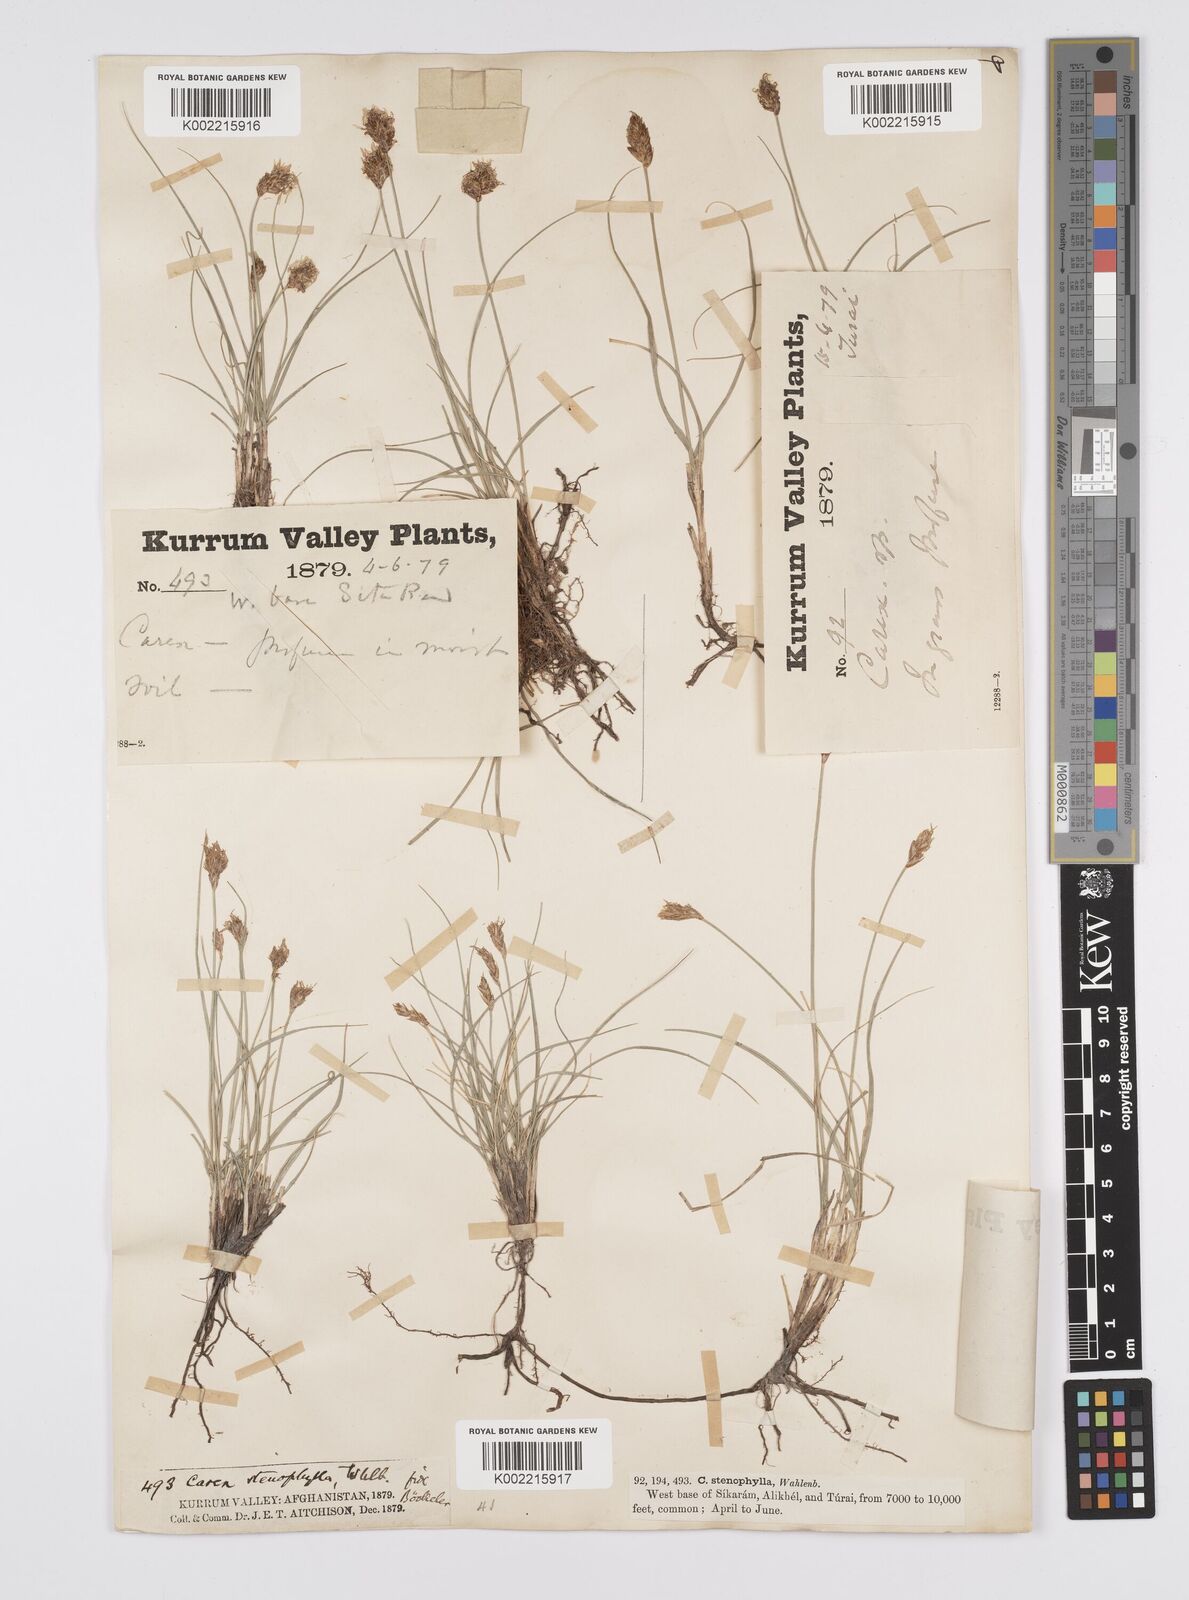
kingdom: Plantae
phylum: Tracheophyta
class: Liliopsida
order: Poales
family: Cyperaceae
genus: Carex
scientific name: Carex stenophylla
